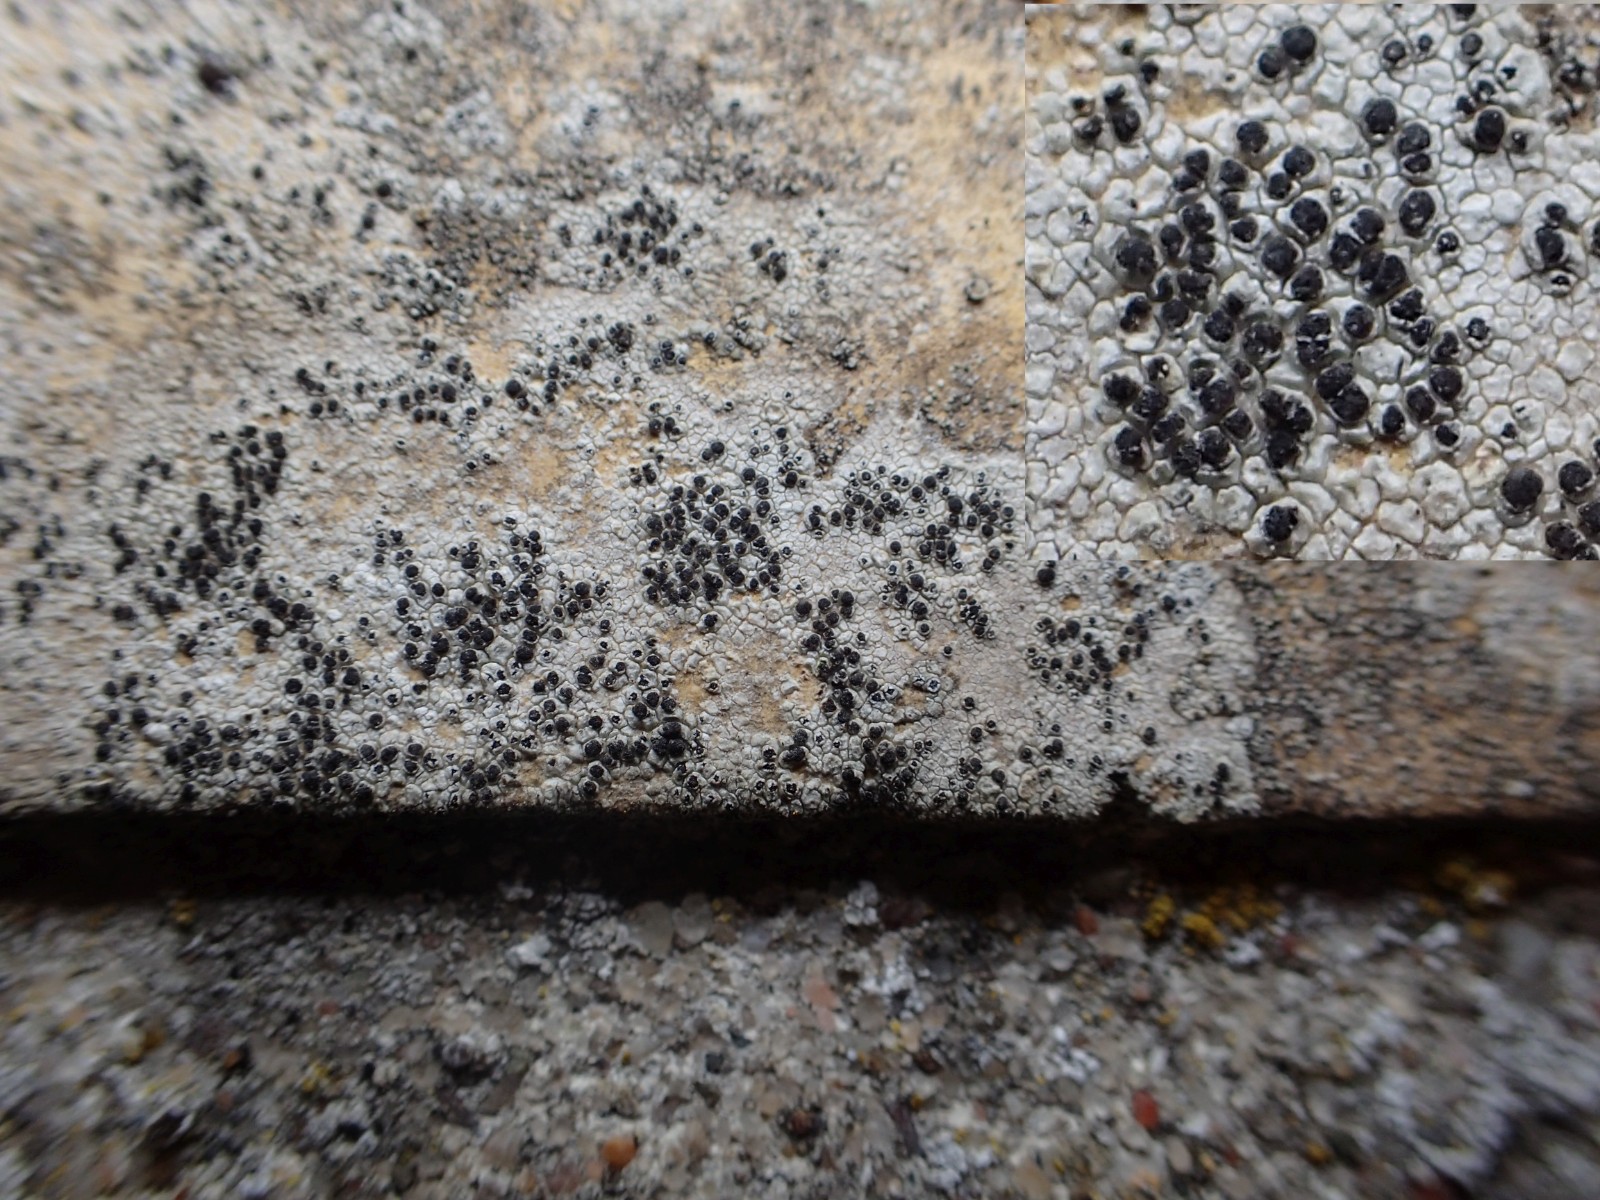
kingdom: Fungi
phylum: Ascomycota
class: Lecanoromycetes
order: Lecanorales
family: Tephromelataceae
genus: Tephromela
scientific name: Tephromela atra
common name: sortfrugtet kantskivelav
